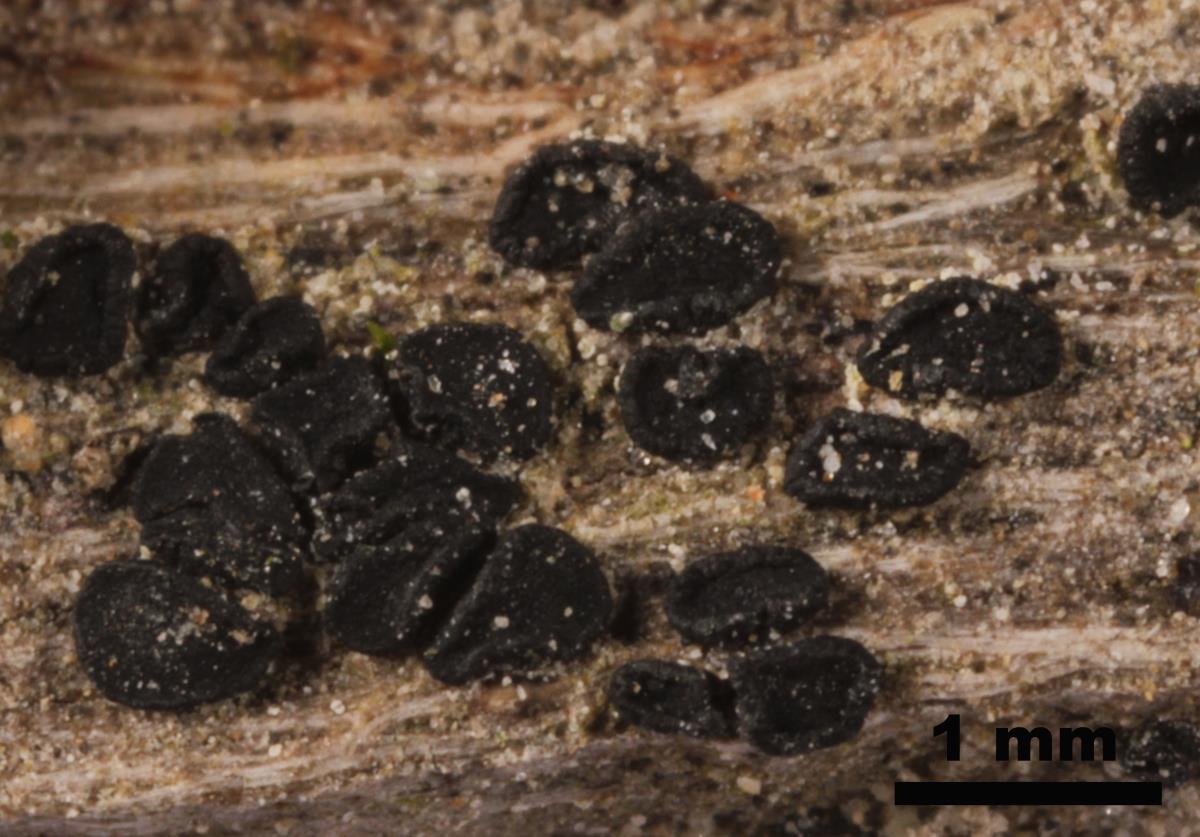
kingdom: Fungi
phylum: Ascomycota
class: Dothideomycetes
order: Patellariales
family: Patellariaceae
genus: Patellaria
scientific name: Patellaria atrata
